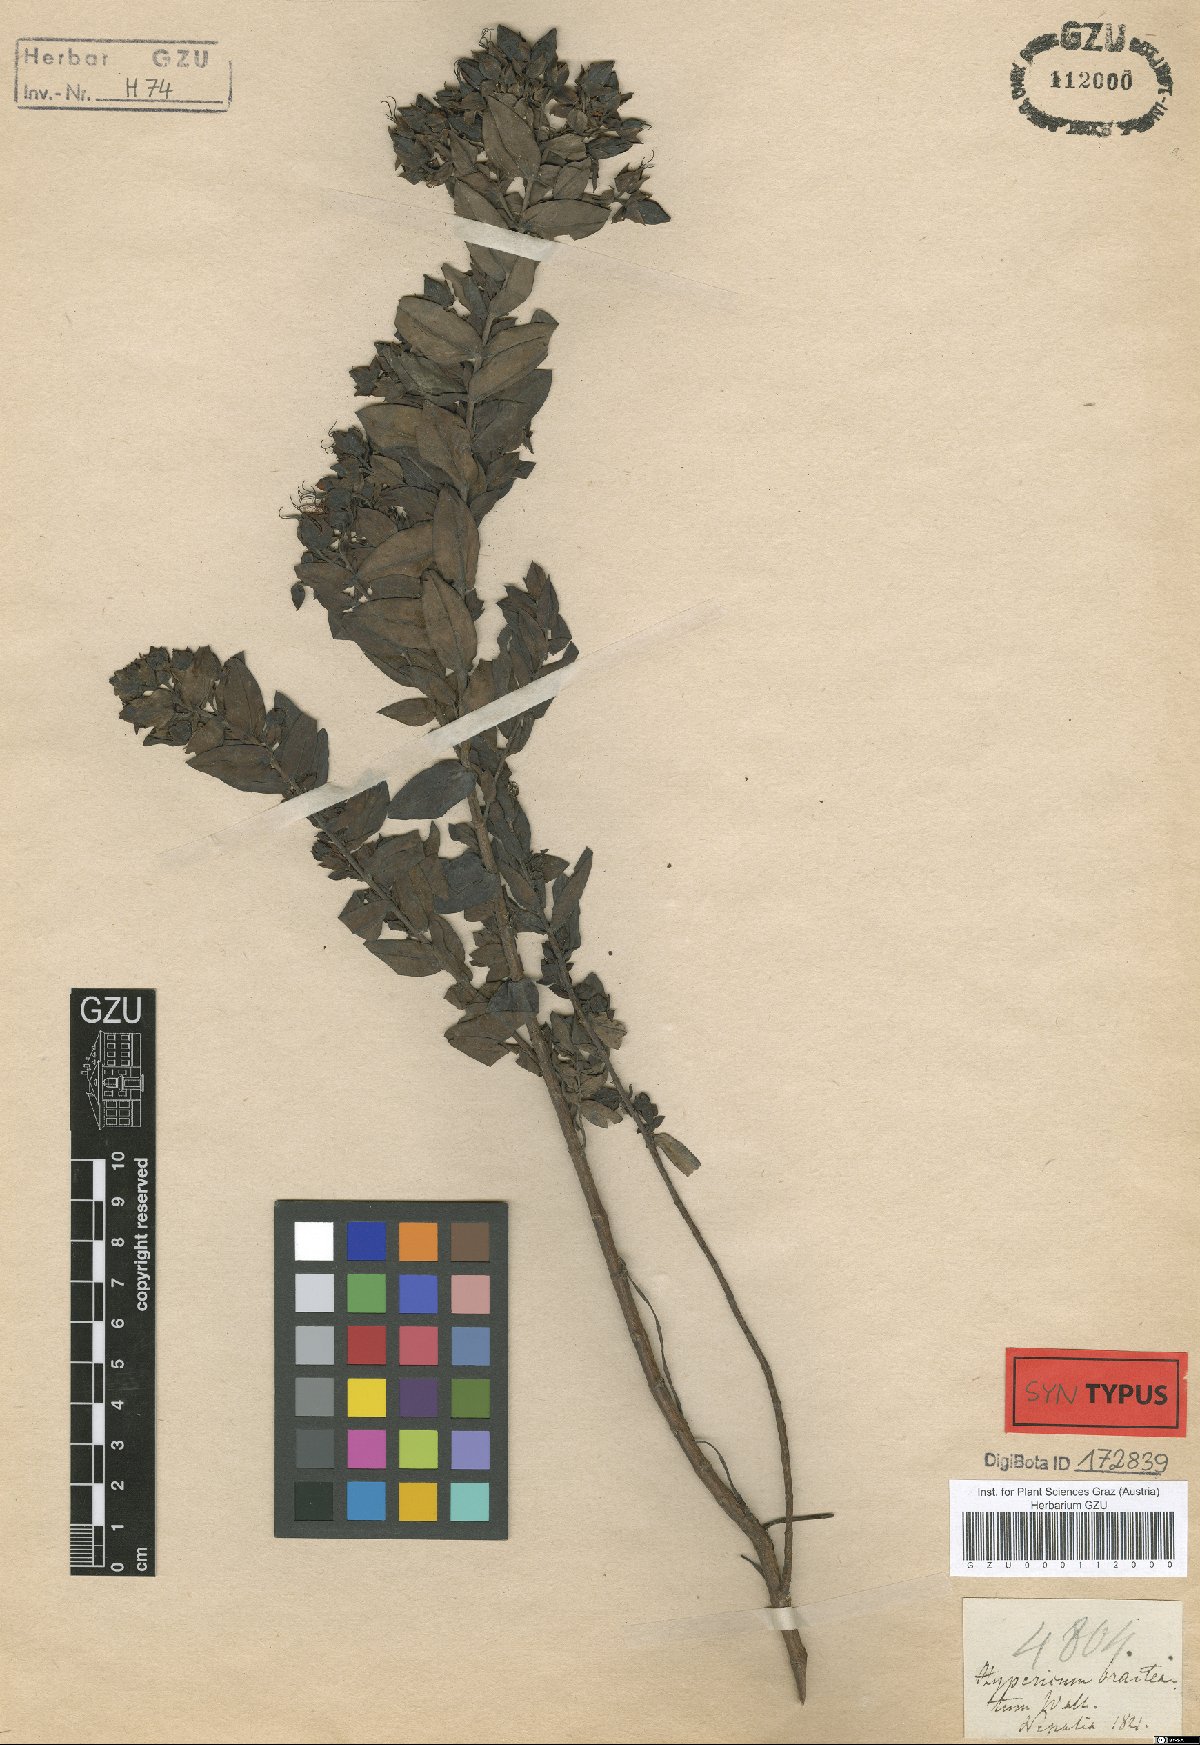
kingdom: Plantae
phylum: Tracheophyta
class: Magnoliopsida
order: Malpighiales
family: Hypericaceae
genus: Hypericum
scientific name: Hypericum cordifolium
